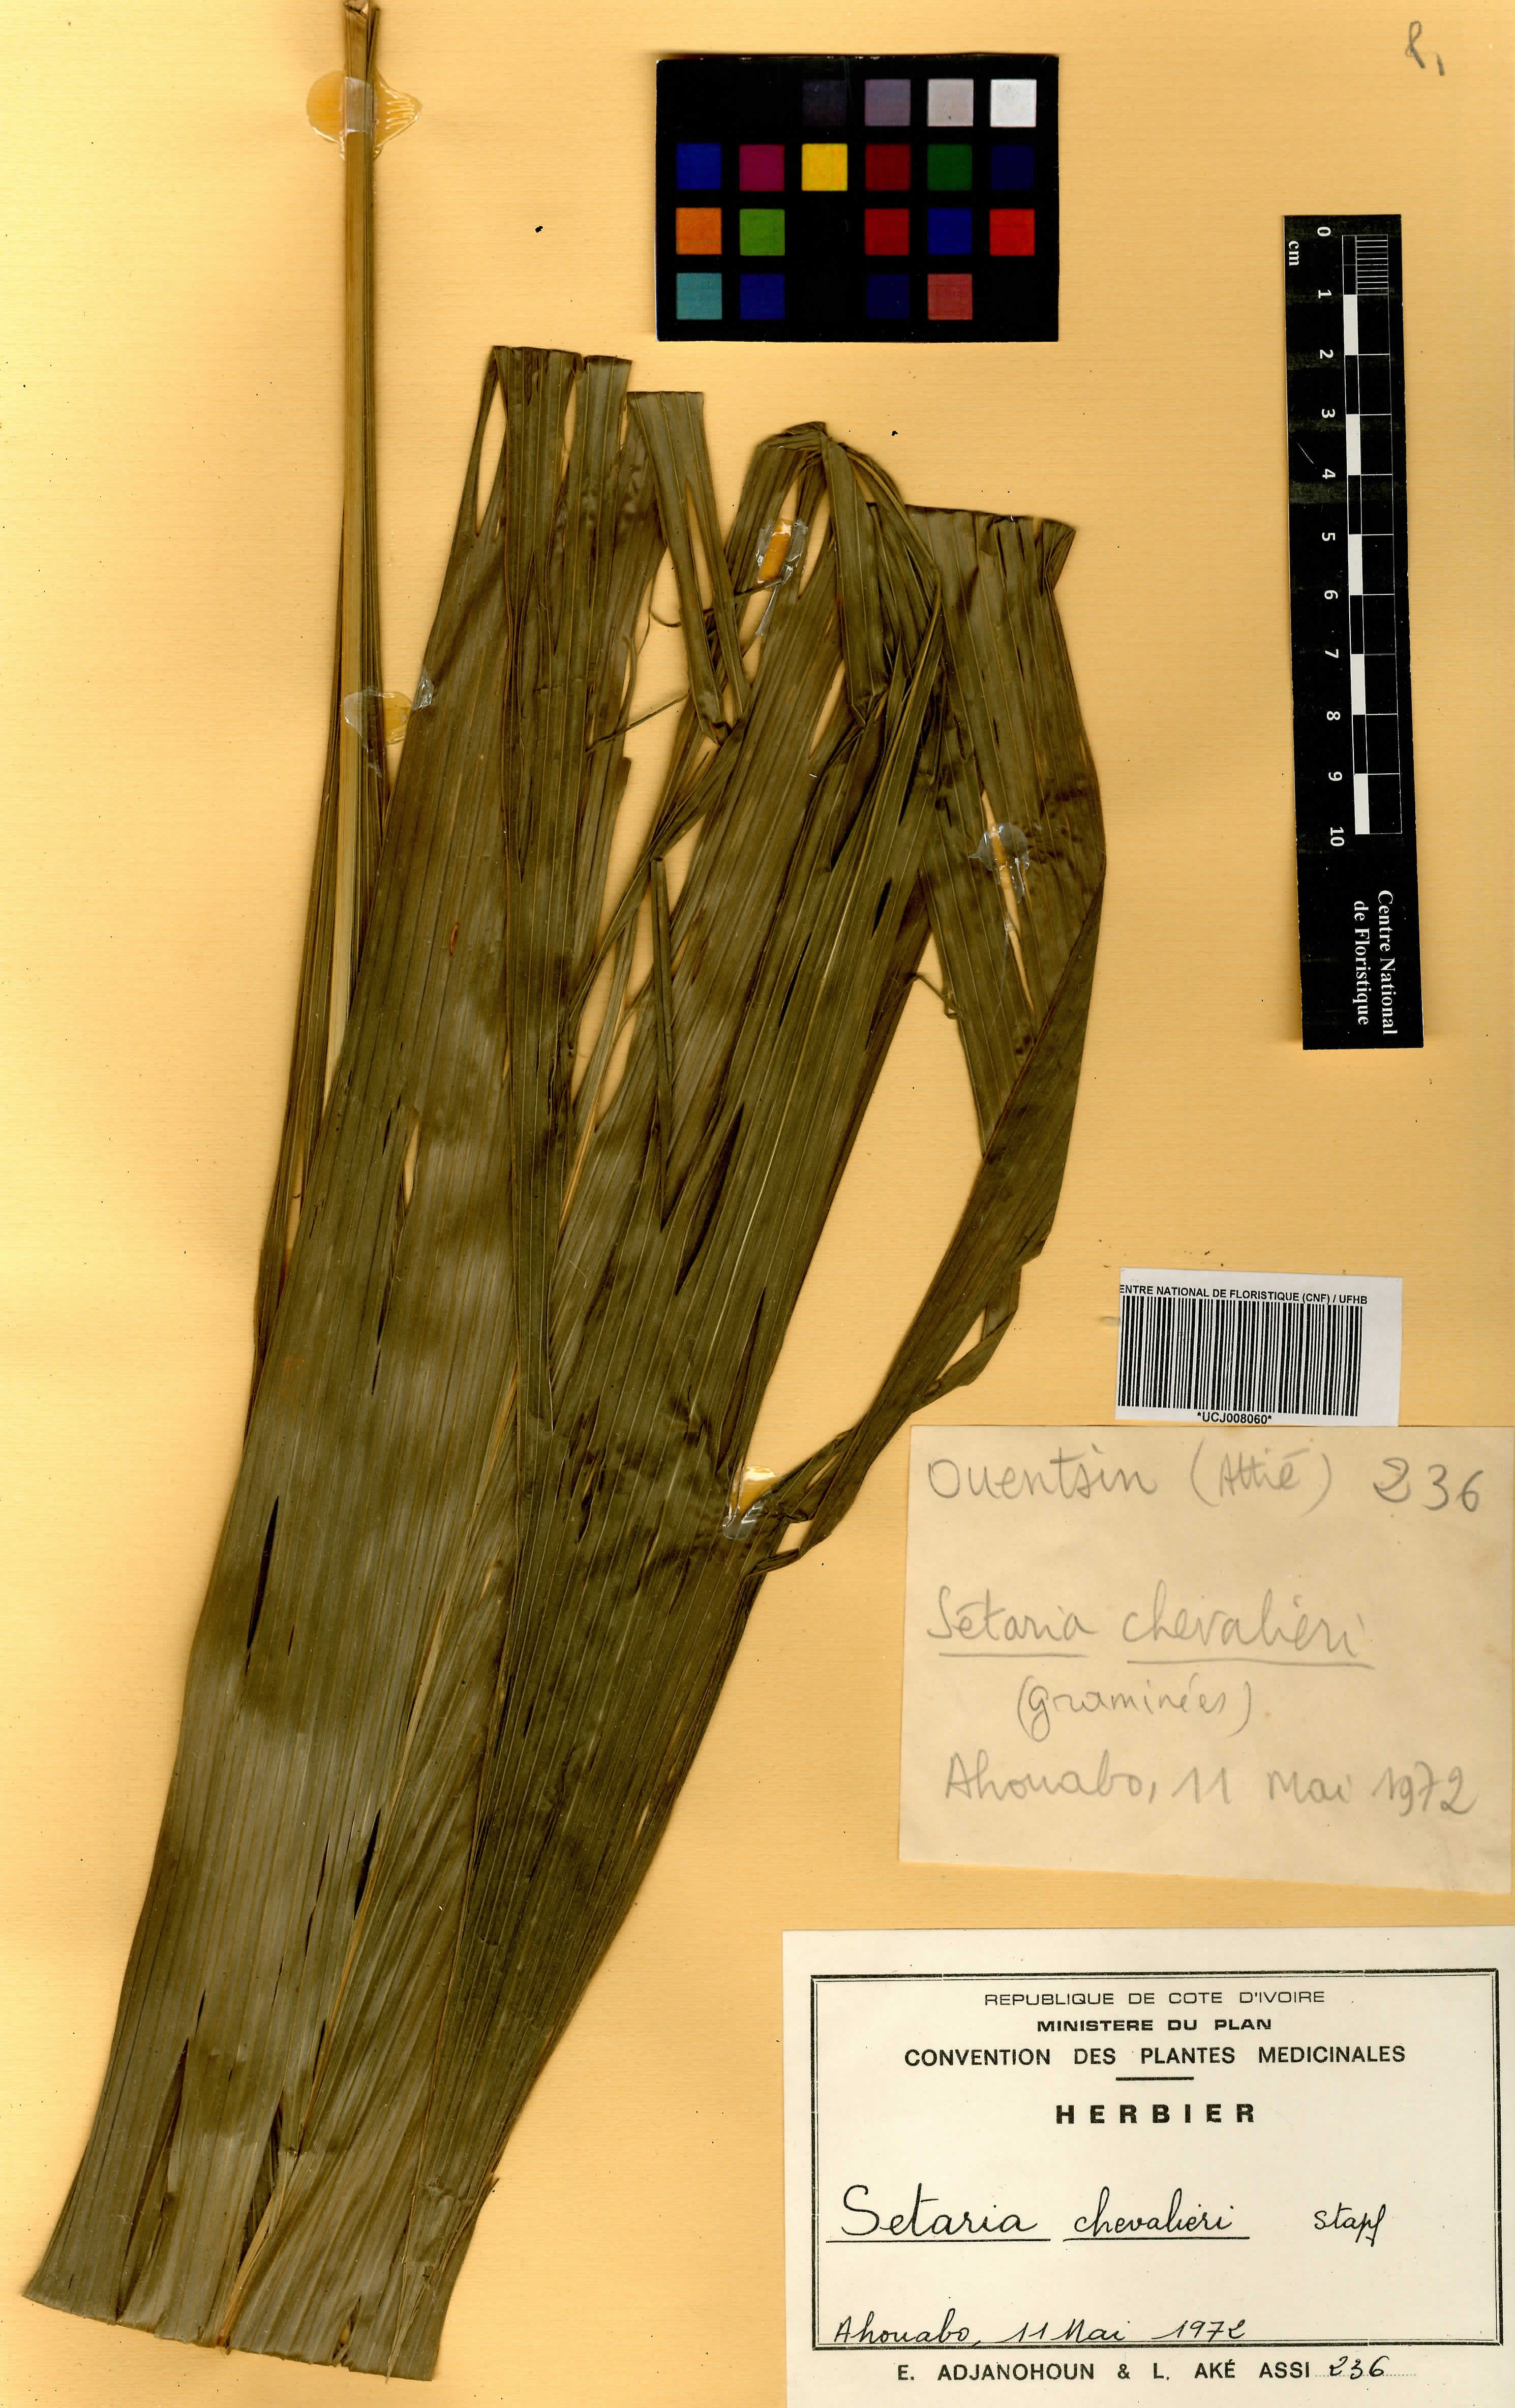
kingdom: Plantae
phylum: Tracheophyta
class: Liliopsida
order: Poales
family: Poaceae
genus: Setaria
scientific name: Setaria barbata
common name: East indian bristlegrass
